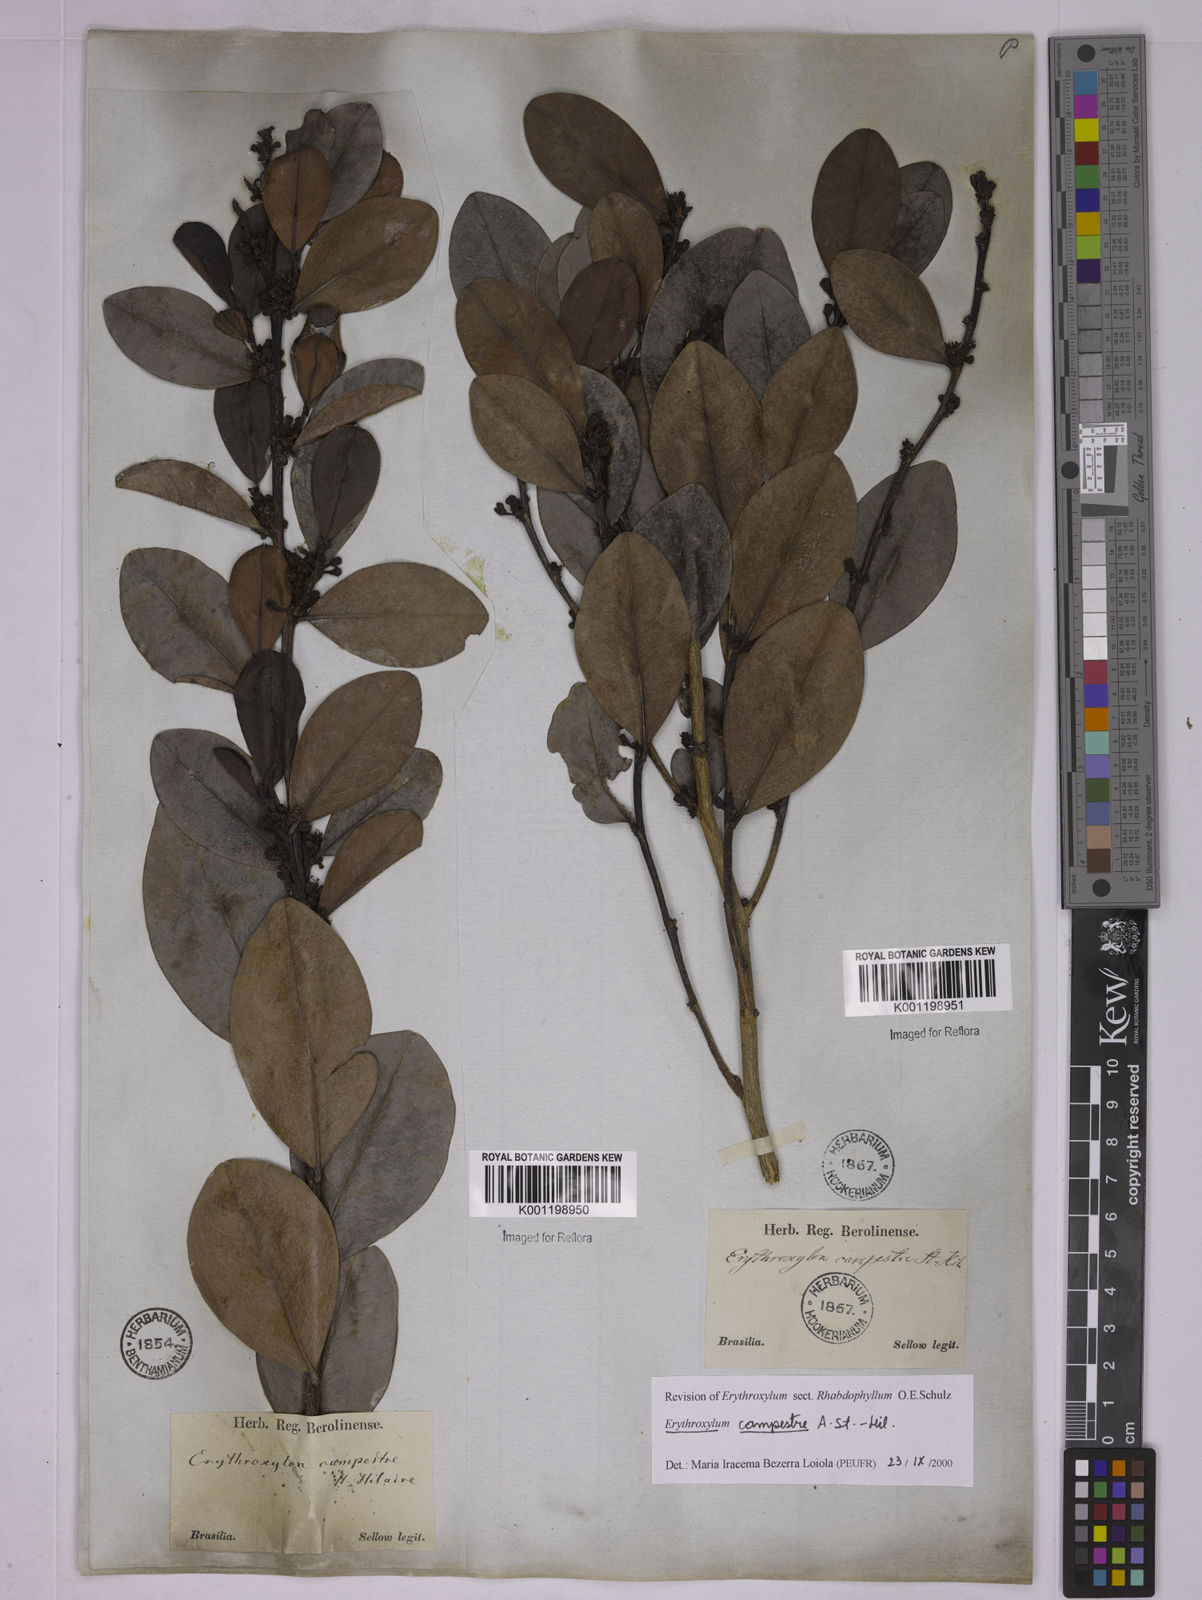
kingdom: Plantae
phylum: Tracheophyta
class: Magnoliopsida
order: Malpighiales
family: Erythroxylaceae
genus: Erythroxylum
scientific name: Erythroxylum campestre
